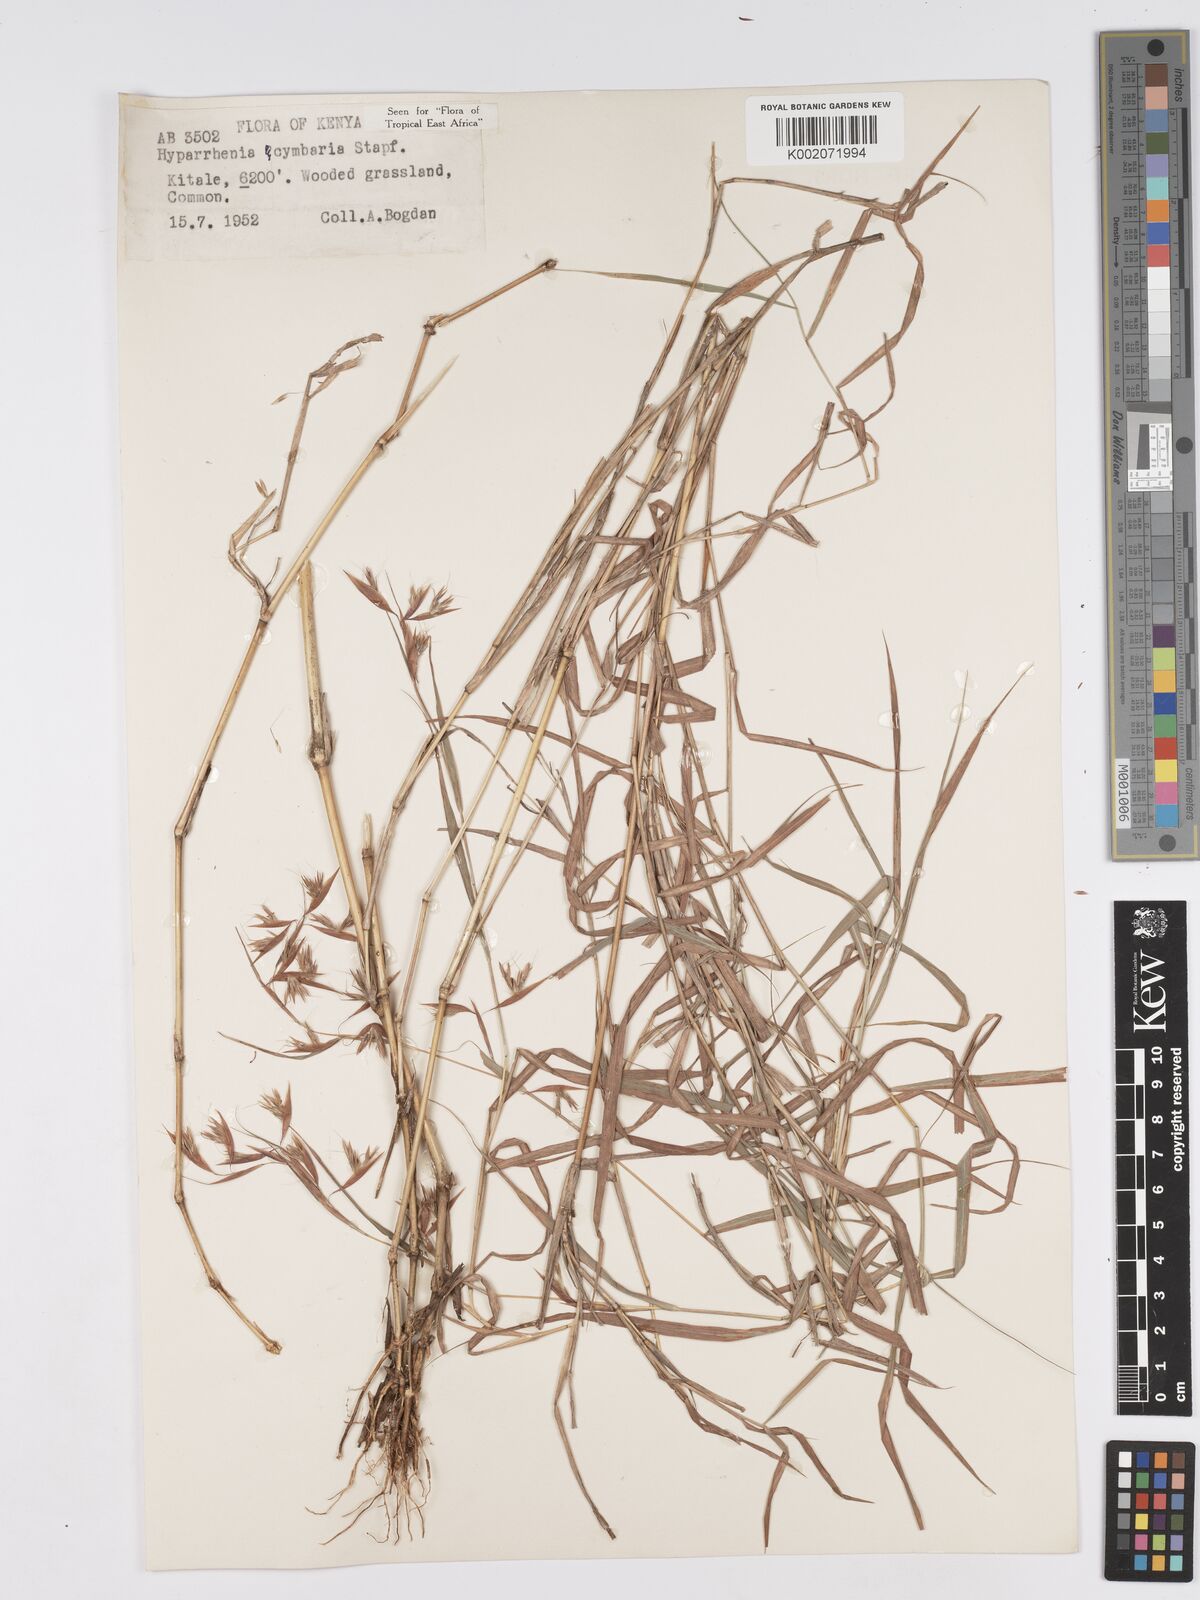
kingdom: Plantae
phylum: Tracheophyta
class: Liliopsida
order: Poales
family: Poaceae
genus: Hyparrhenia
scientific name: Hyparrhenia cymbaria
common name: Boat thatching grass
